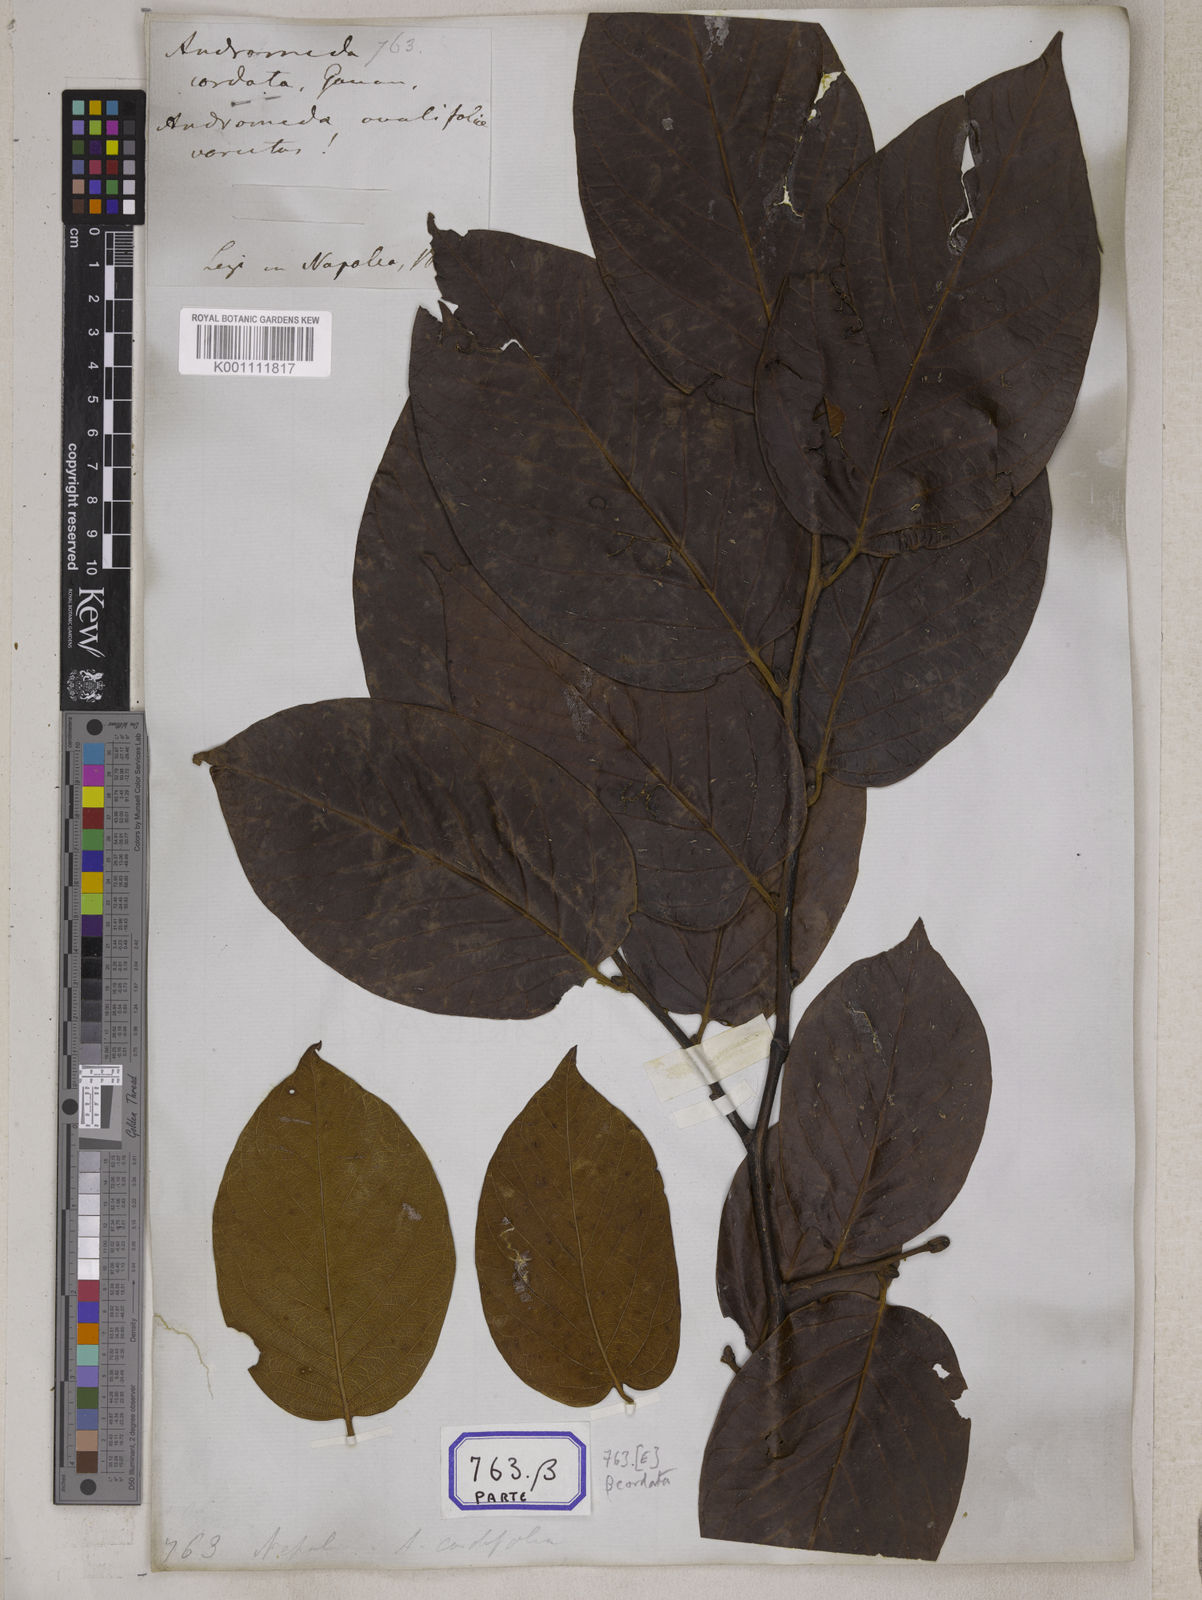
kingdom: Plantae
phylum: Tracheophyta
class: Magnoliopsida
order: Ericales
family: Ericaceae
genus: Lyonia
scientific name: Lyonia ovalifolia
